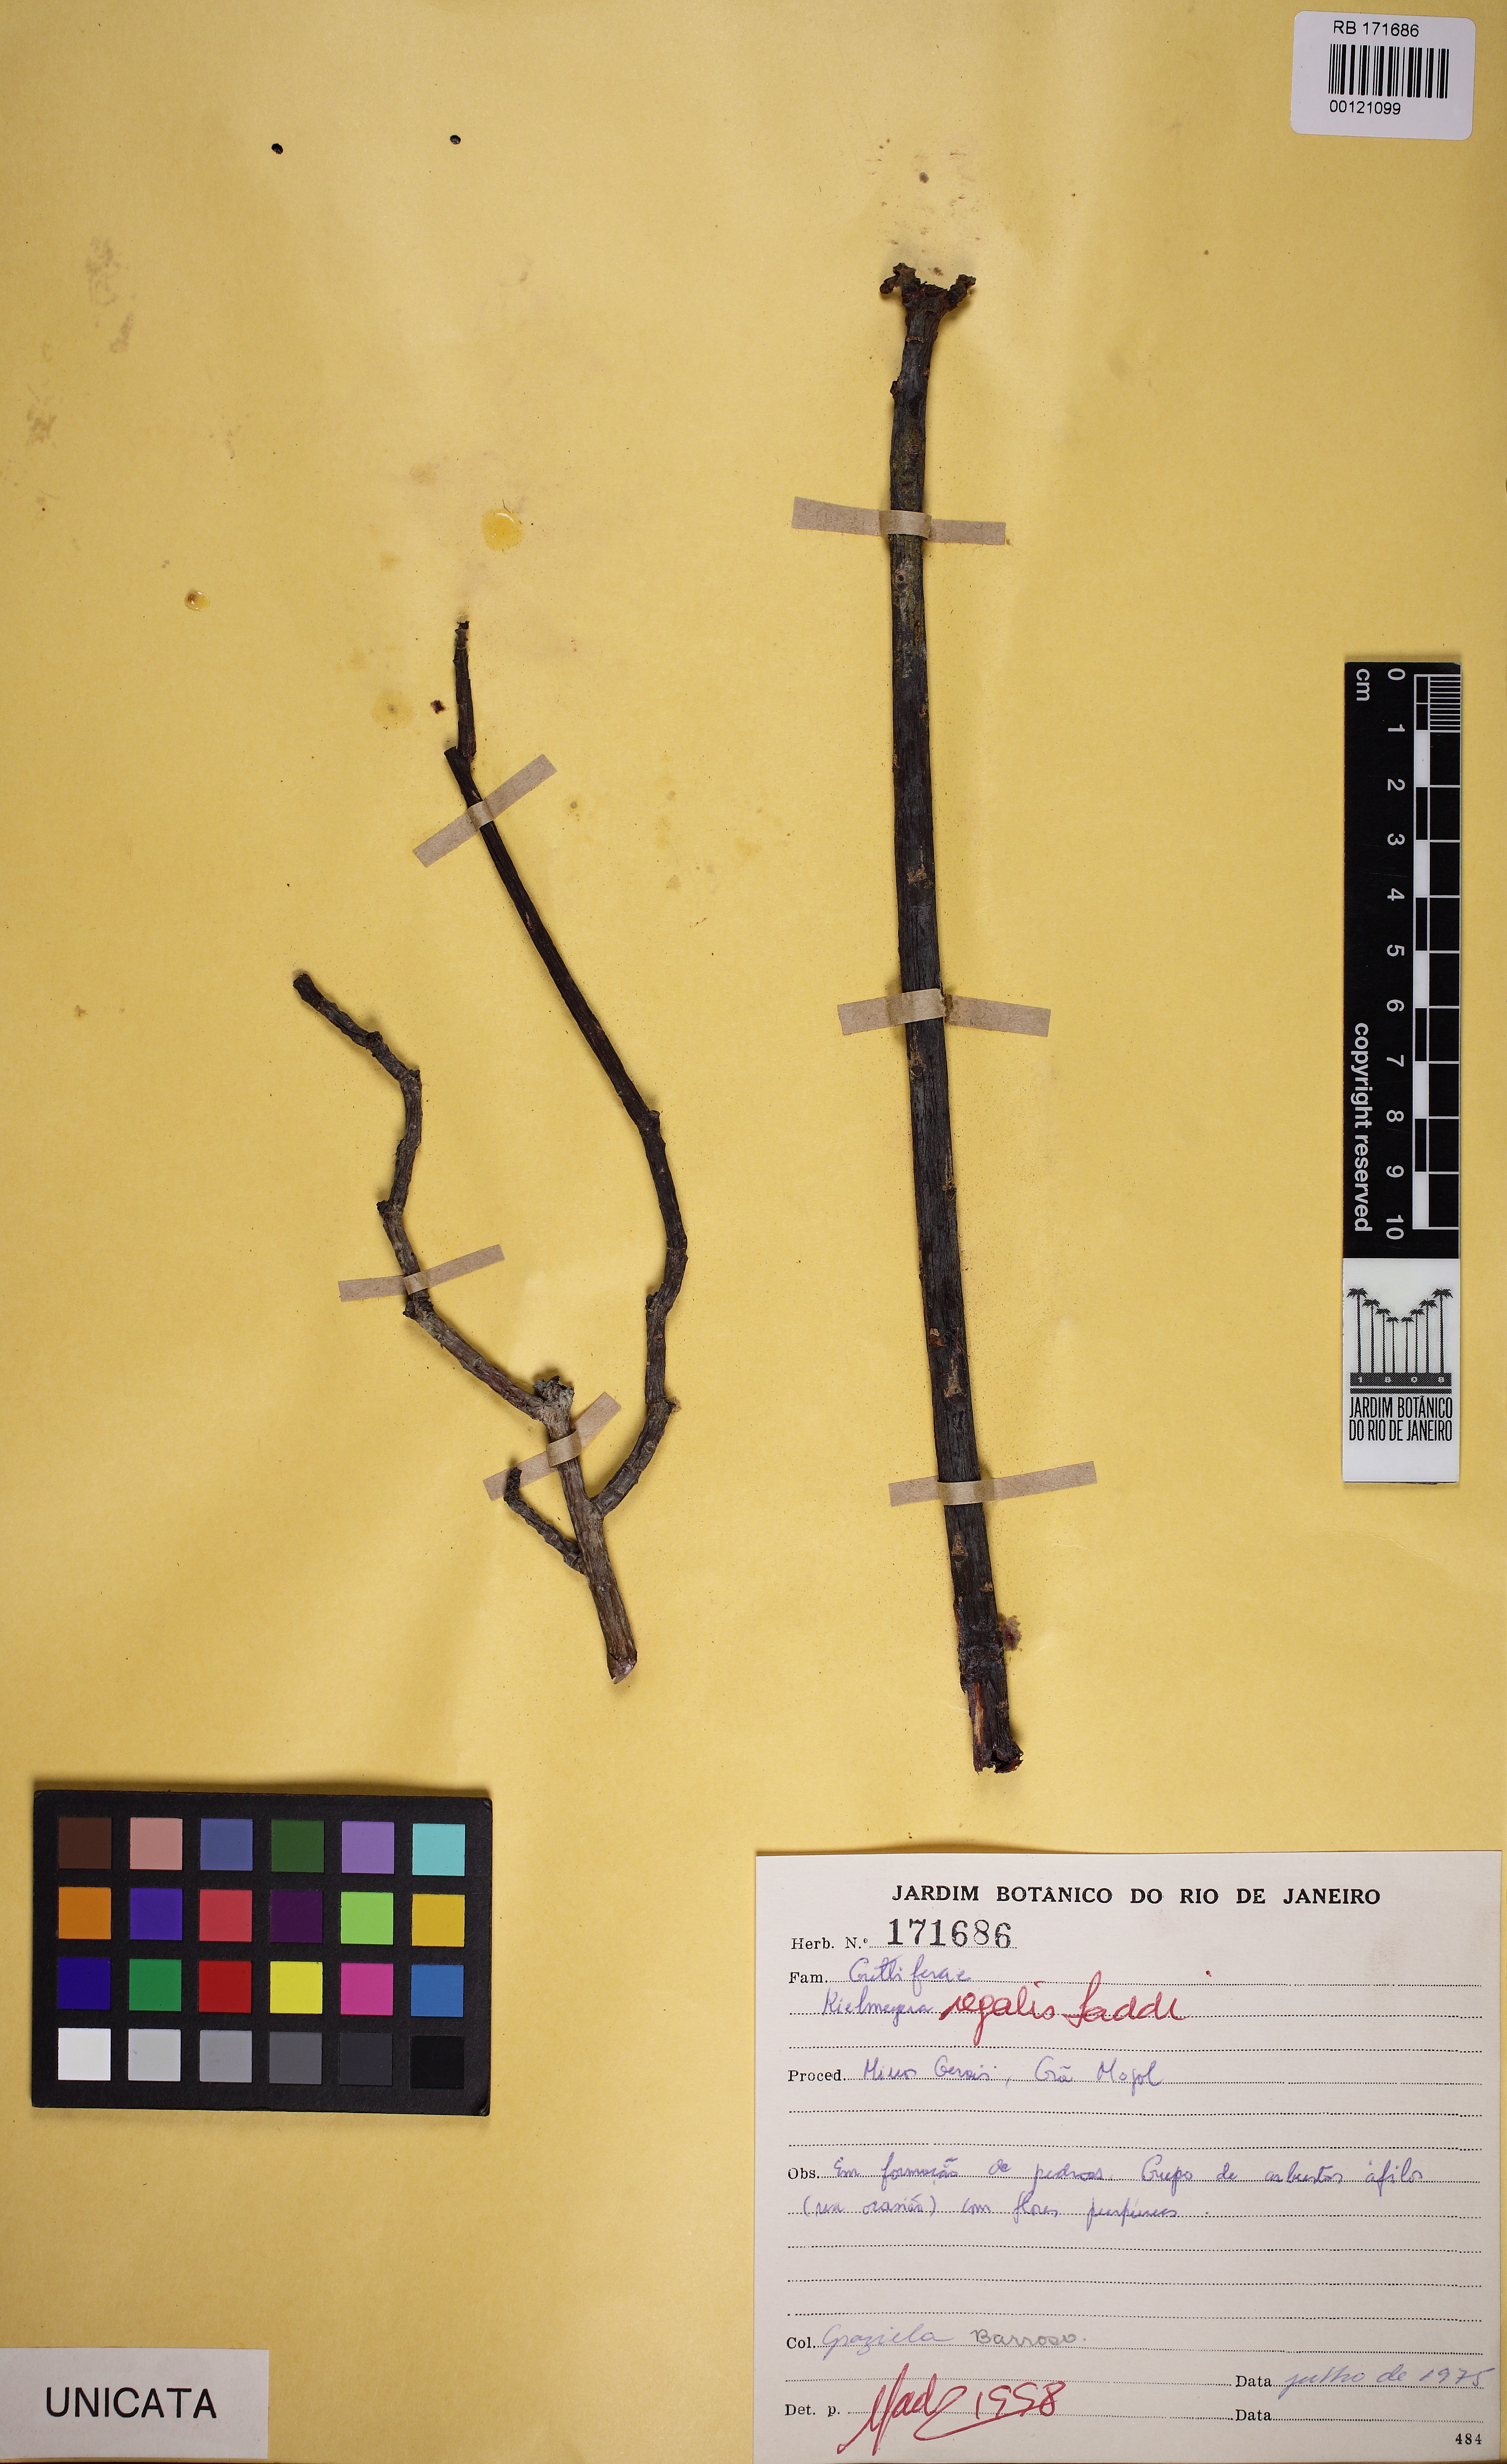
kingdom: Plantae
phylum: Tracheophyta
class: Magnoliopsida
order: Malpighiales
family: Calophyllaceae
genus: Kielmeyera
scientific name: Kielmeyera regalis
